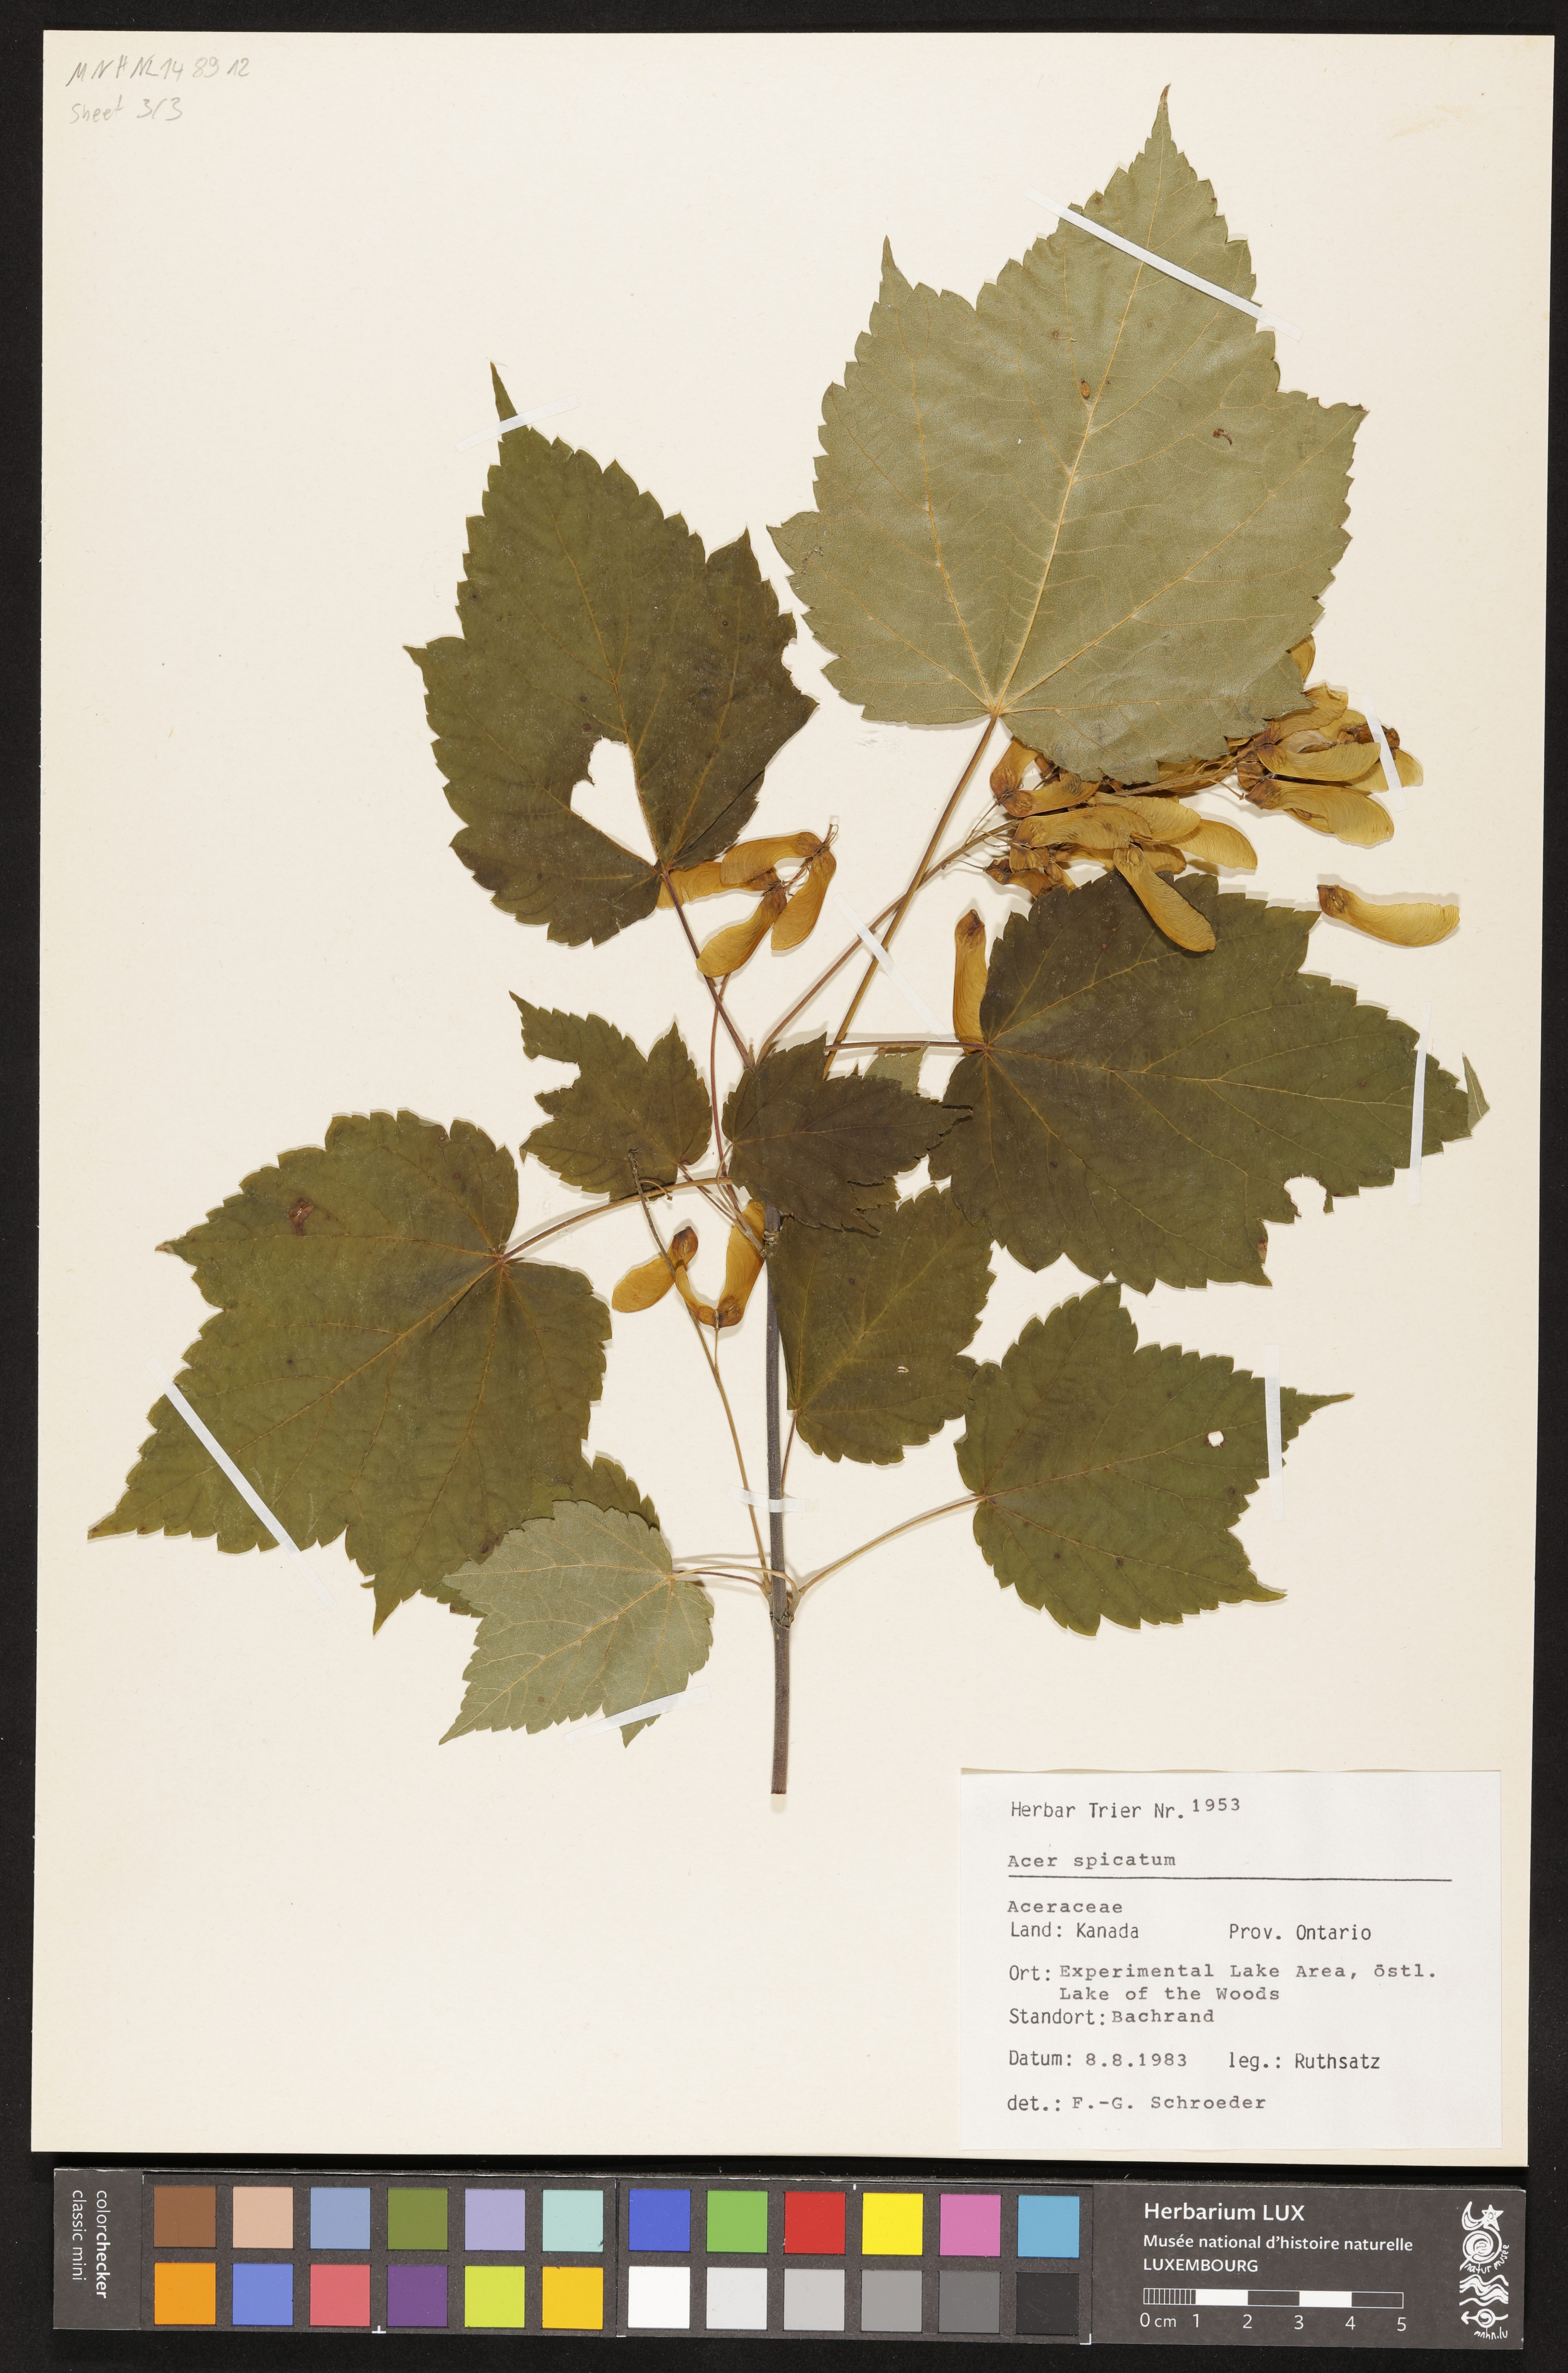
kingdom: Plantae
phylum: Tracheophyta
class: Magnoliopsida
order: Sapindales
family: Sapindaceae
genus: Acer
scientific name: Acer spicatum
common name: Mountain maple
